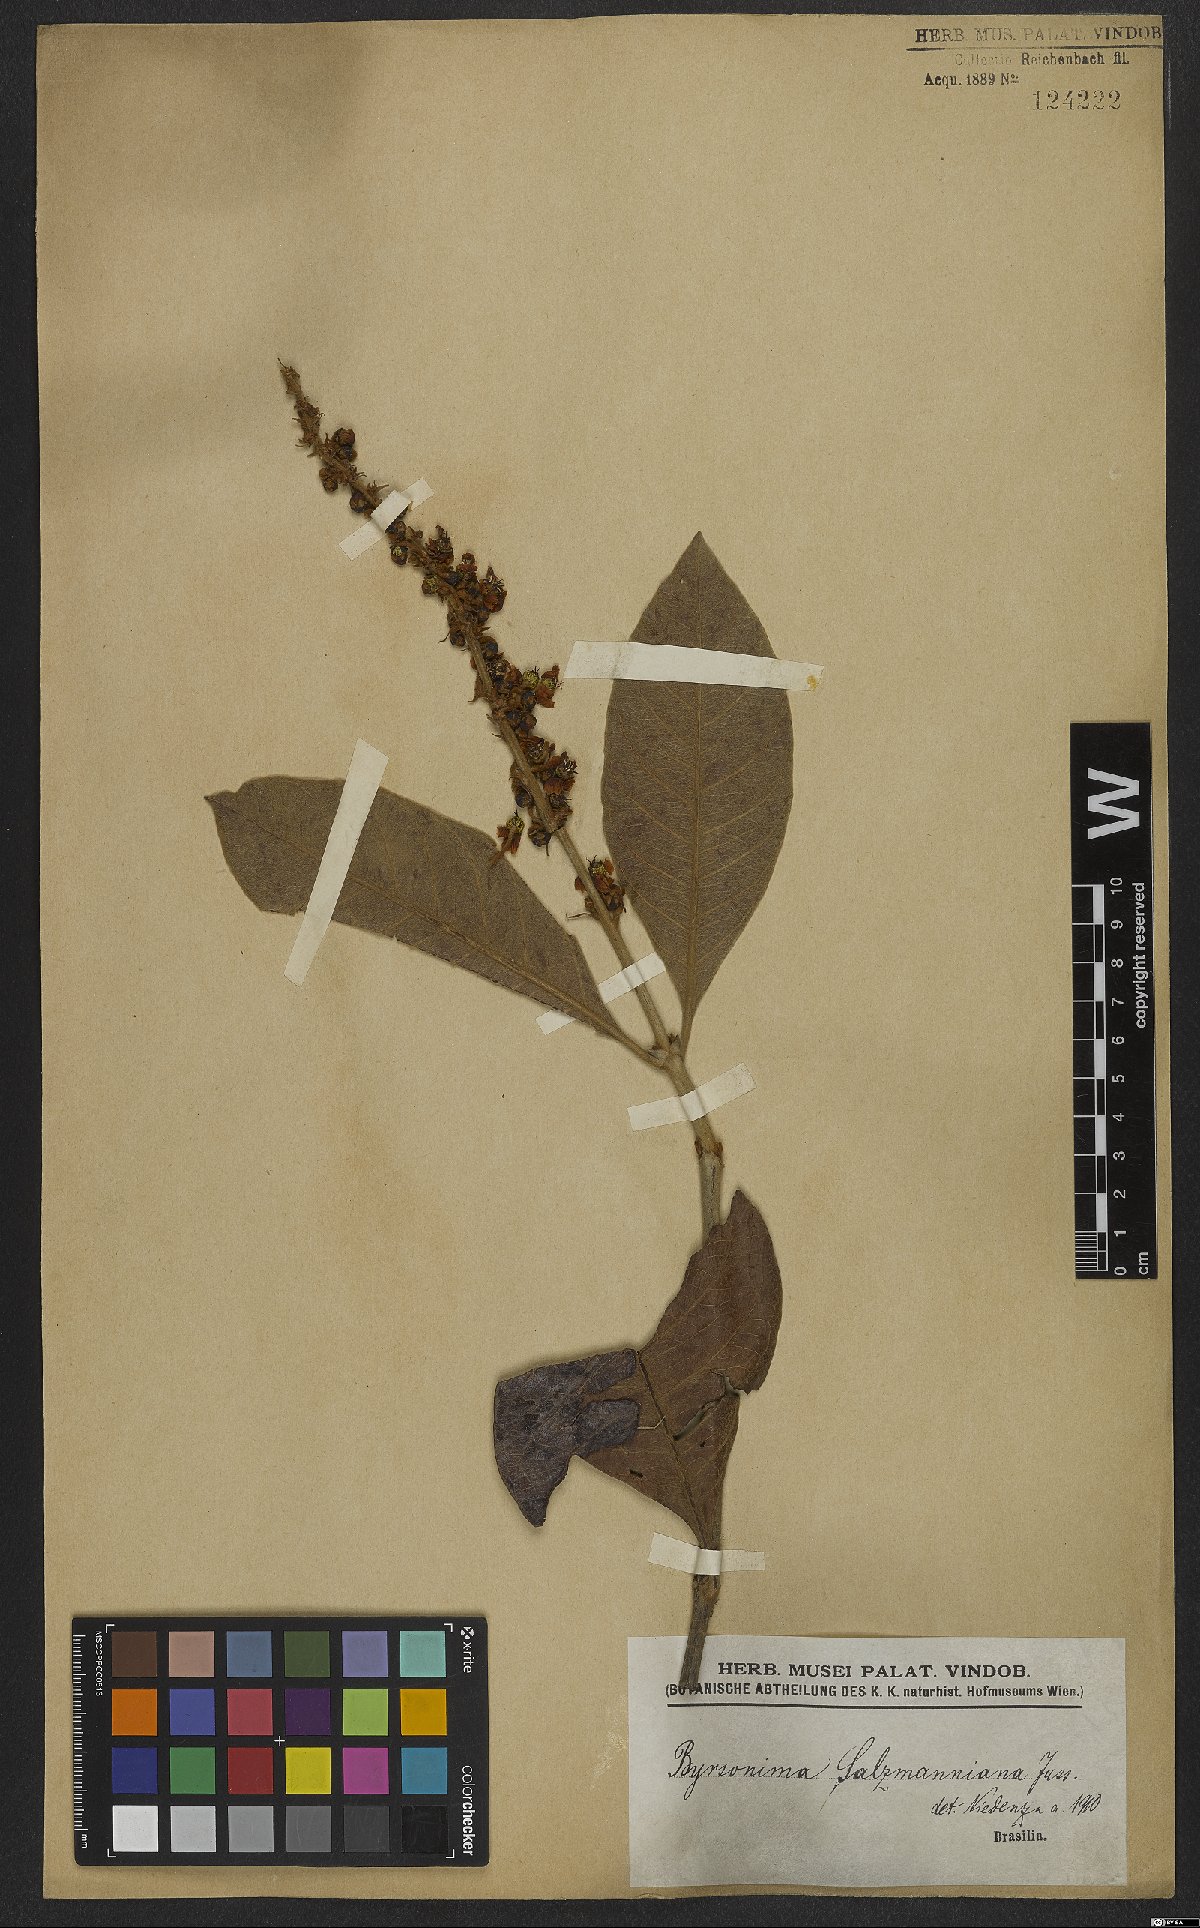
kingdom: Plantae
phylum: Tracheophyta
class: Magnoliopsida
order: Malpighiales
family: Malpighiaceae
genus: Byrsonima
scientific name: Byrsonima salzmanniana
